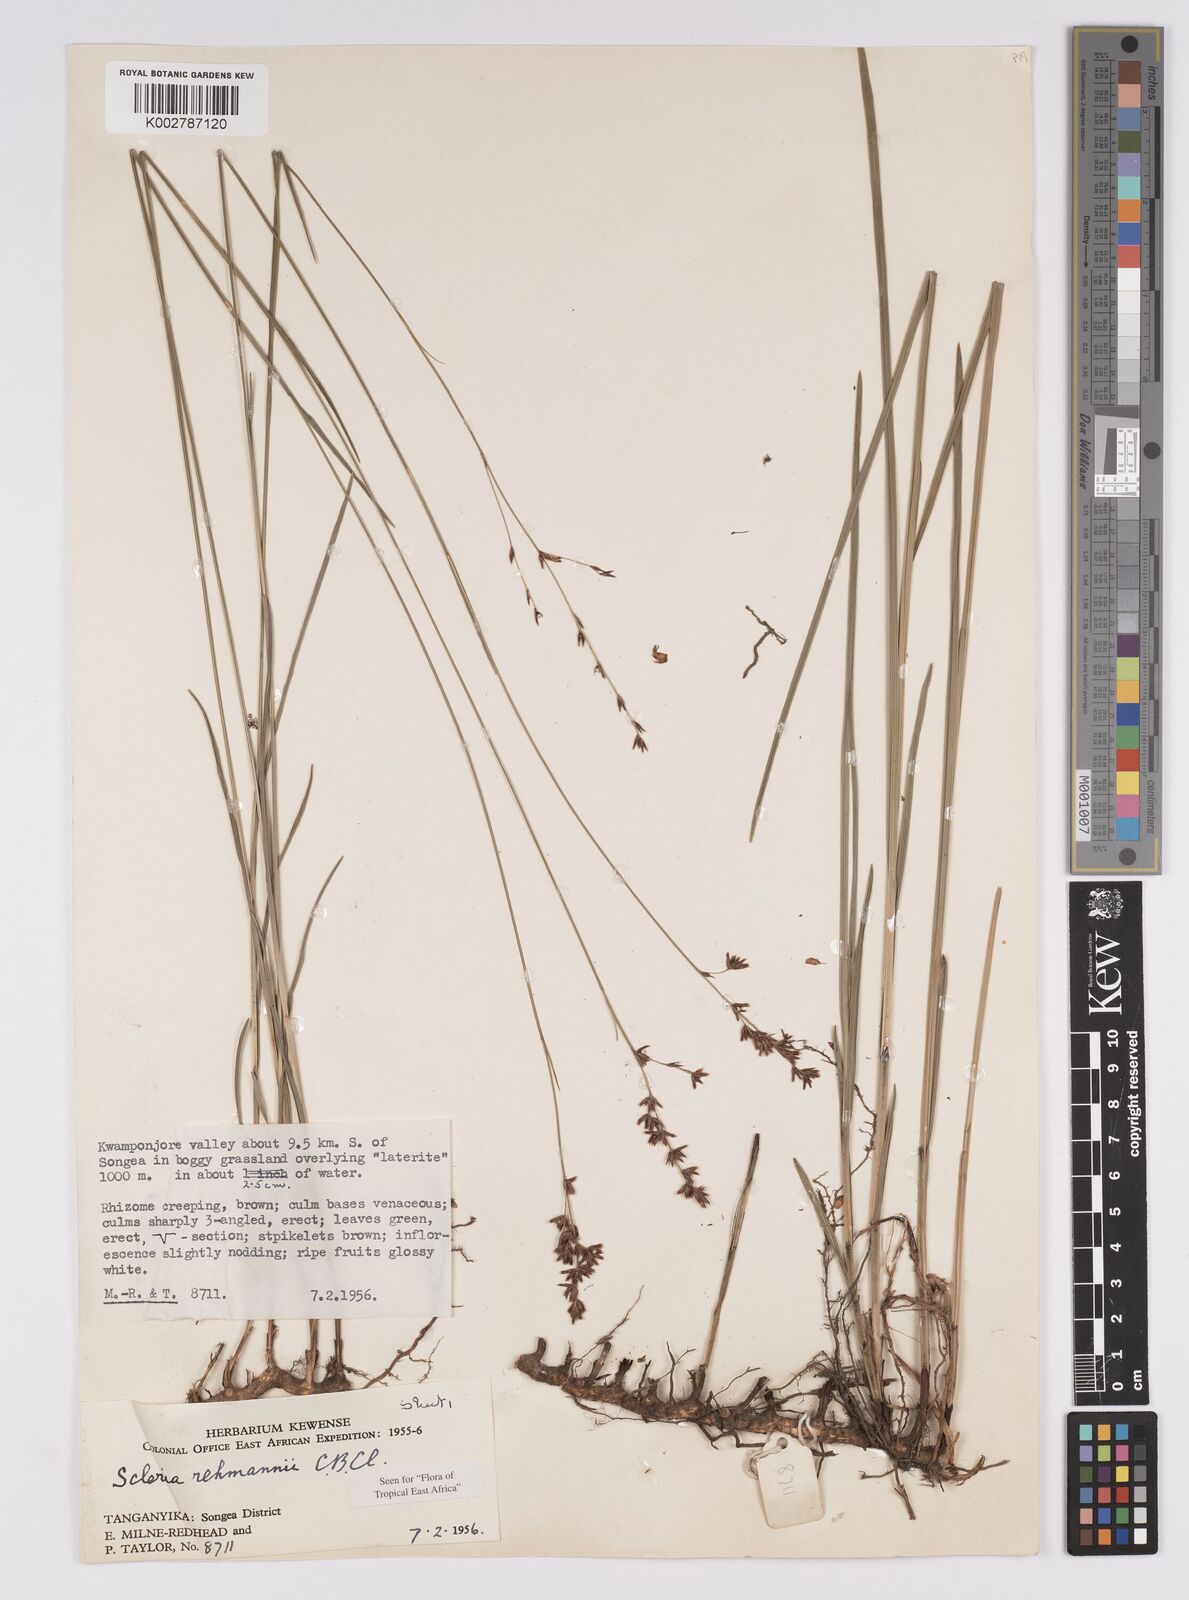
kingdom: Plantae
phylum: Tracheophyta
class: Liliopsida
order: Poales
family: Cyperaceae
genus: Scleria
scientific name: Scleria rehmannii
